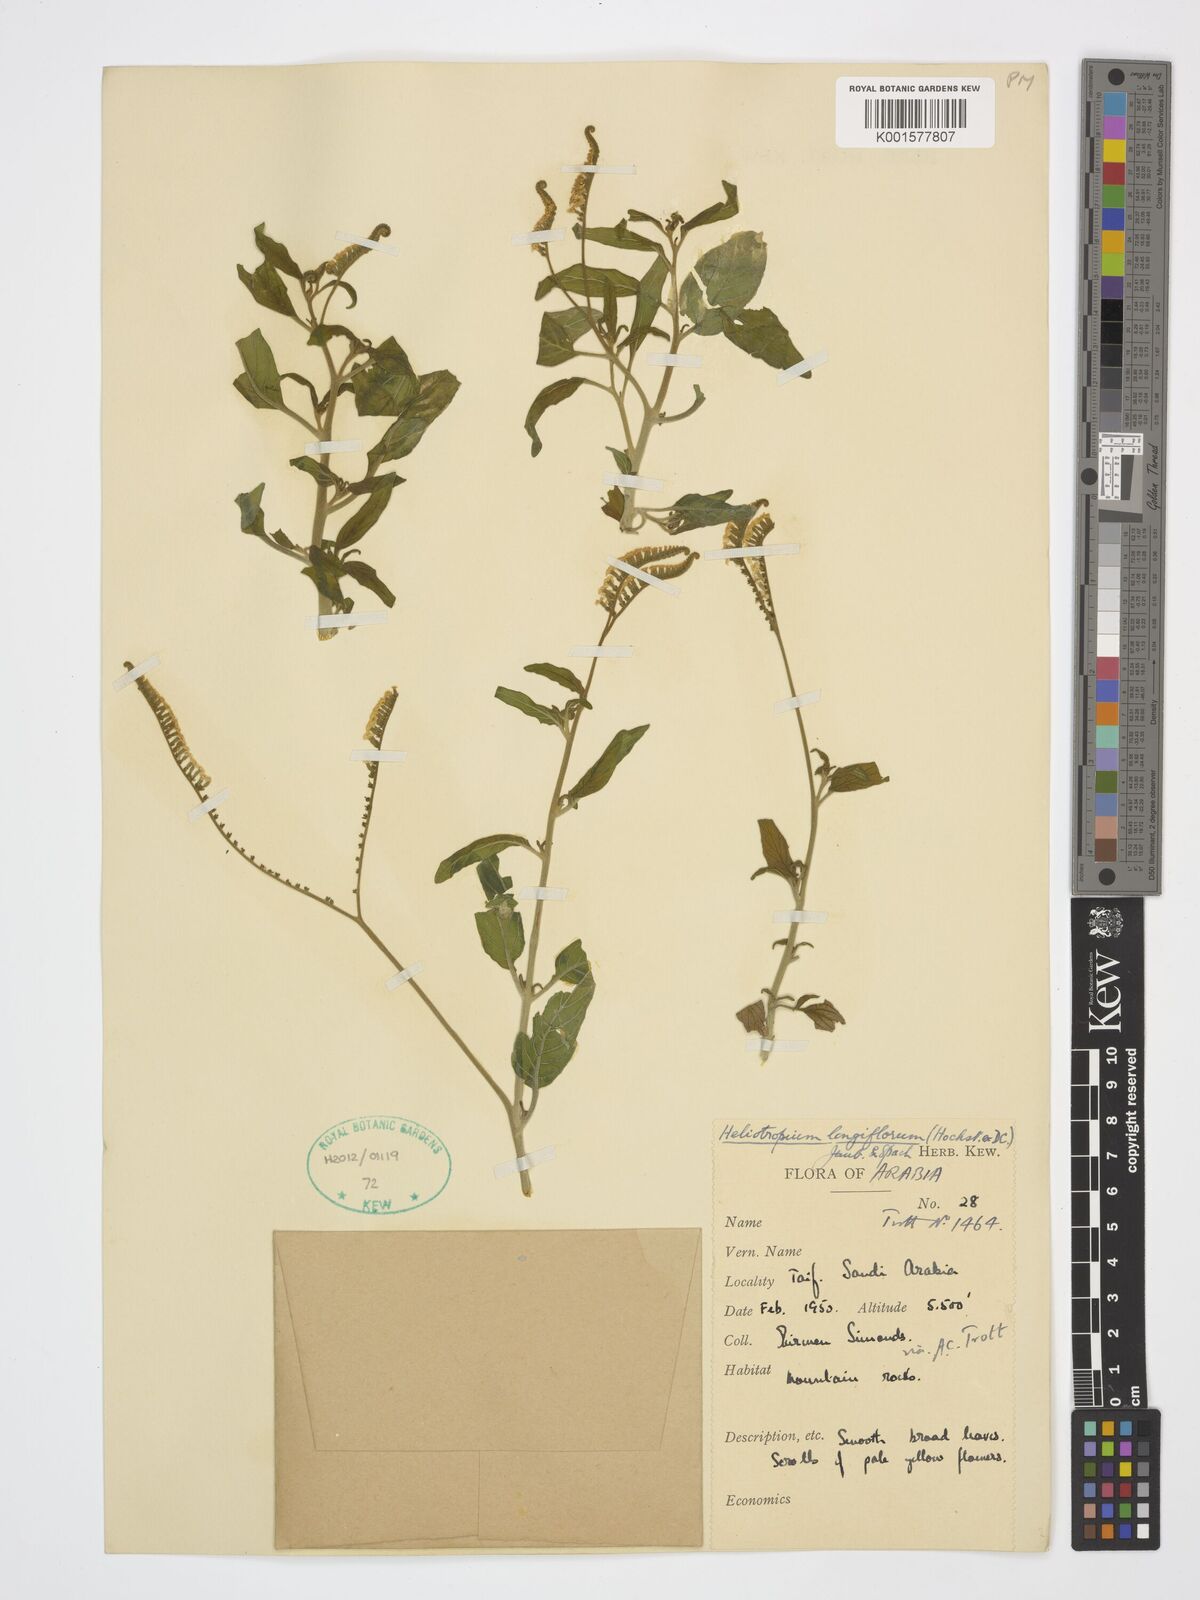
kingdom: Plantae
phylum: Tracheophyta
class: Magnoliopsida
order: Boraginales
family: Heliotropiaceae
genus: Heliotropium
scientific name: Heliotropium longiflorum
